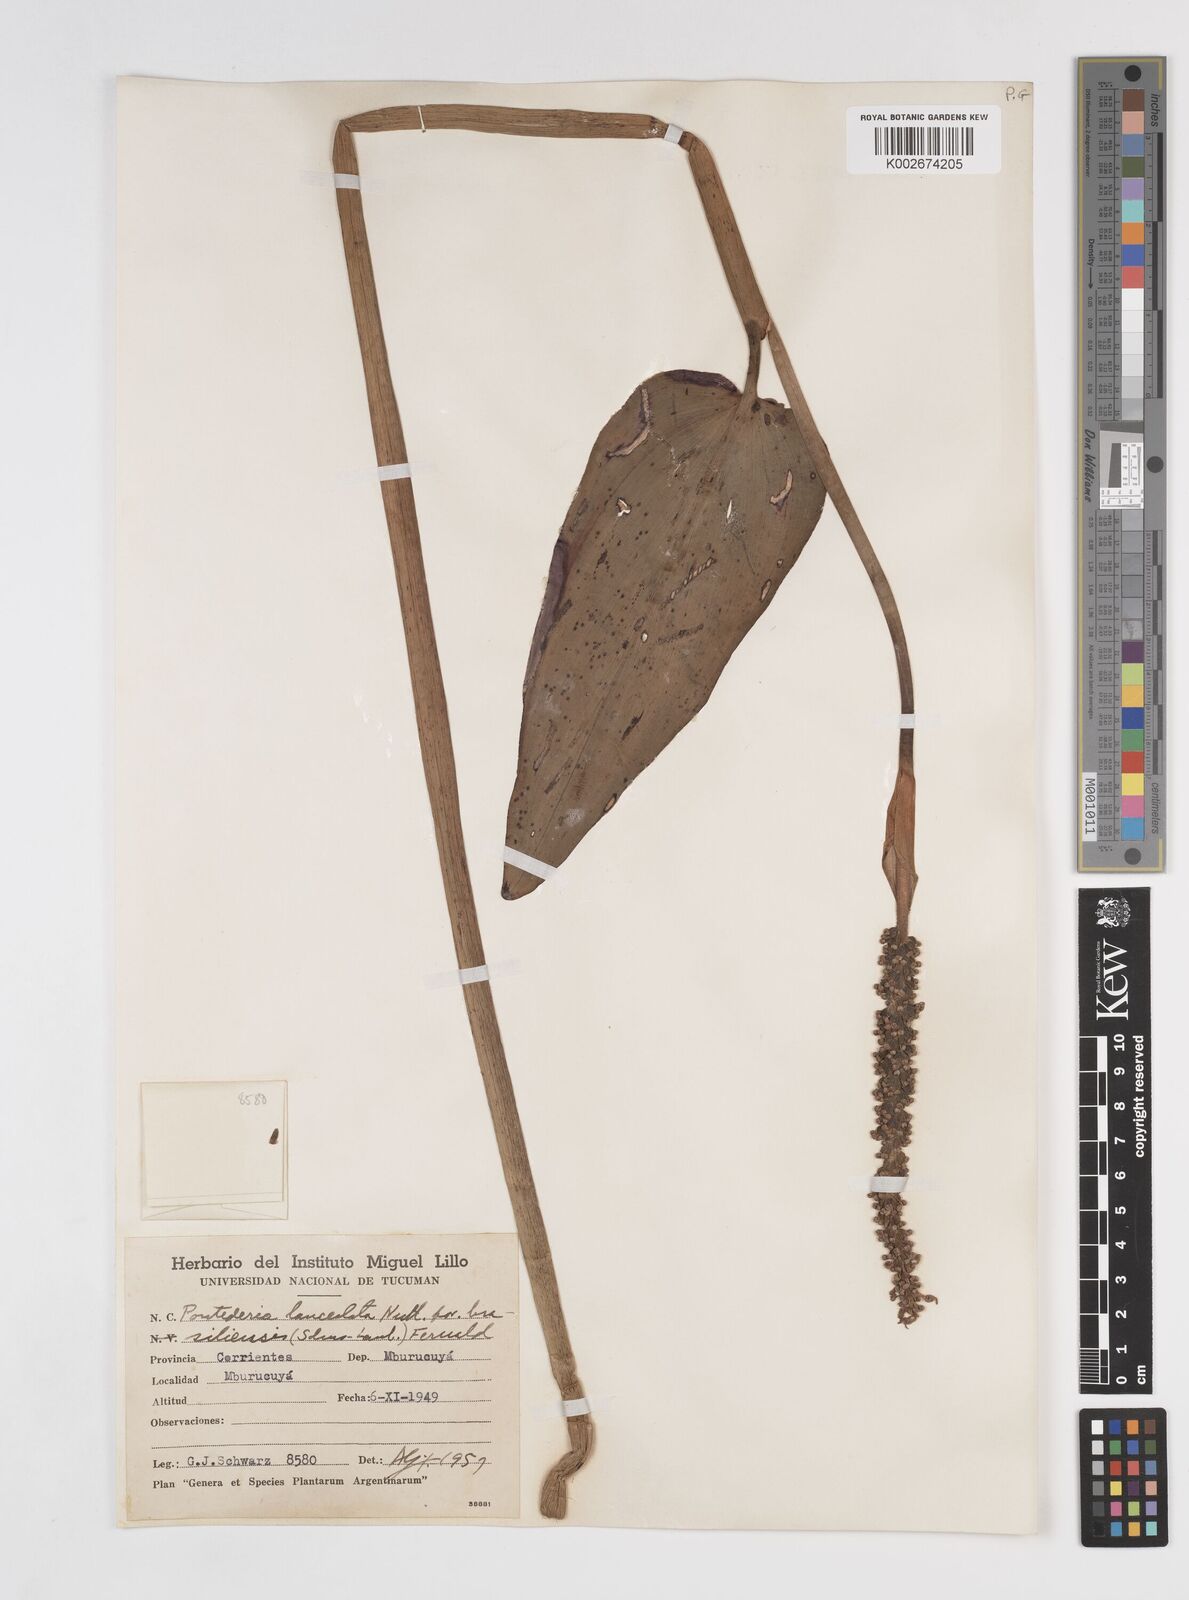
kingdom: Plantae
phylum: Tracheophyta
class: Liliopsida
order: Commelinales
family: Pontederiaceae
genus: Pontederia
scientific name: Pontederia cordata
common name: Pickerelweed
